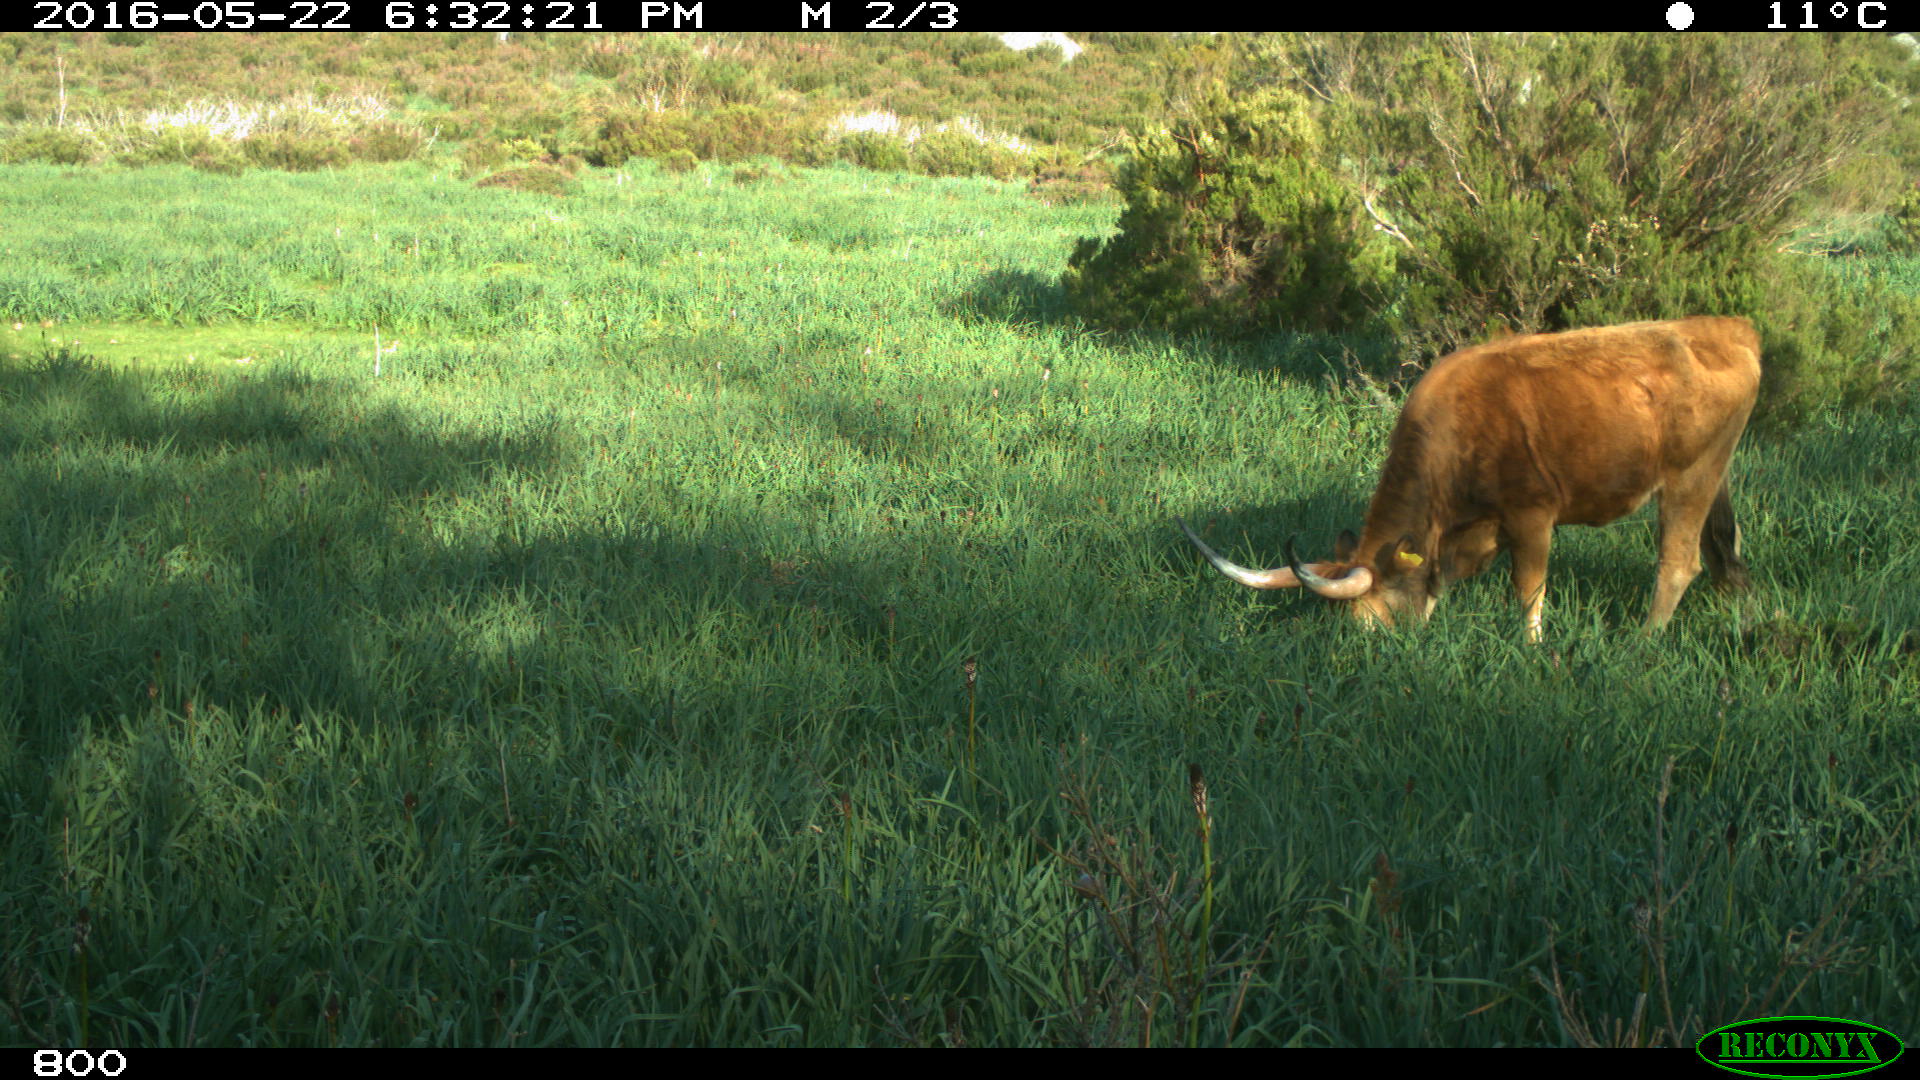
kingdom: Animalia
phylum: Chordata
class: Mammalia
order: Artiodactyla
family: Bovidae
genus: Bos
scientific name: Bos taurus
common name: Domesticated cattle
